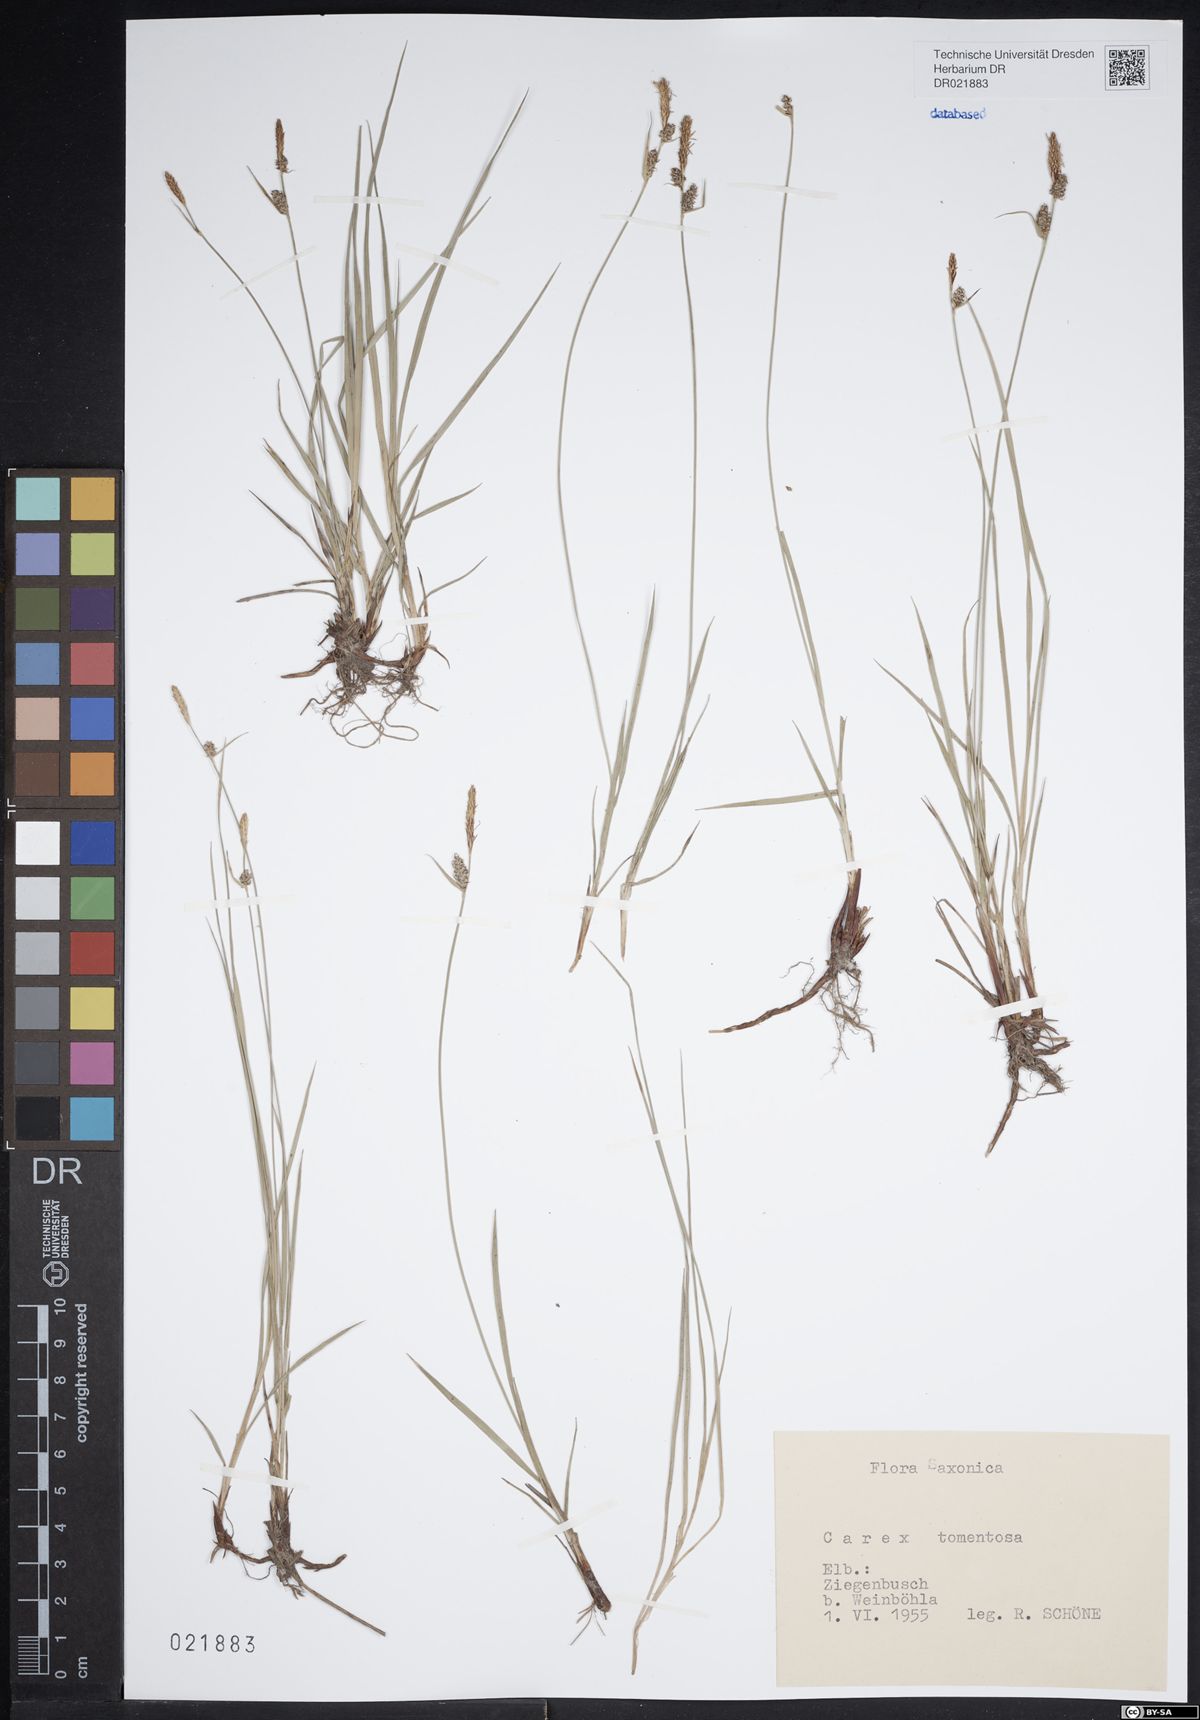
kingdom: Plantae
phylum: Tracheophyta
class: Liliopsida
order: Poales
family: Cyperaceae
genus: Carex
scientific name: Carex tomentosa
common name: Downy-fruited sedge
